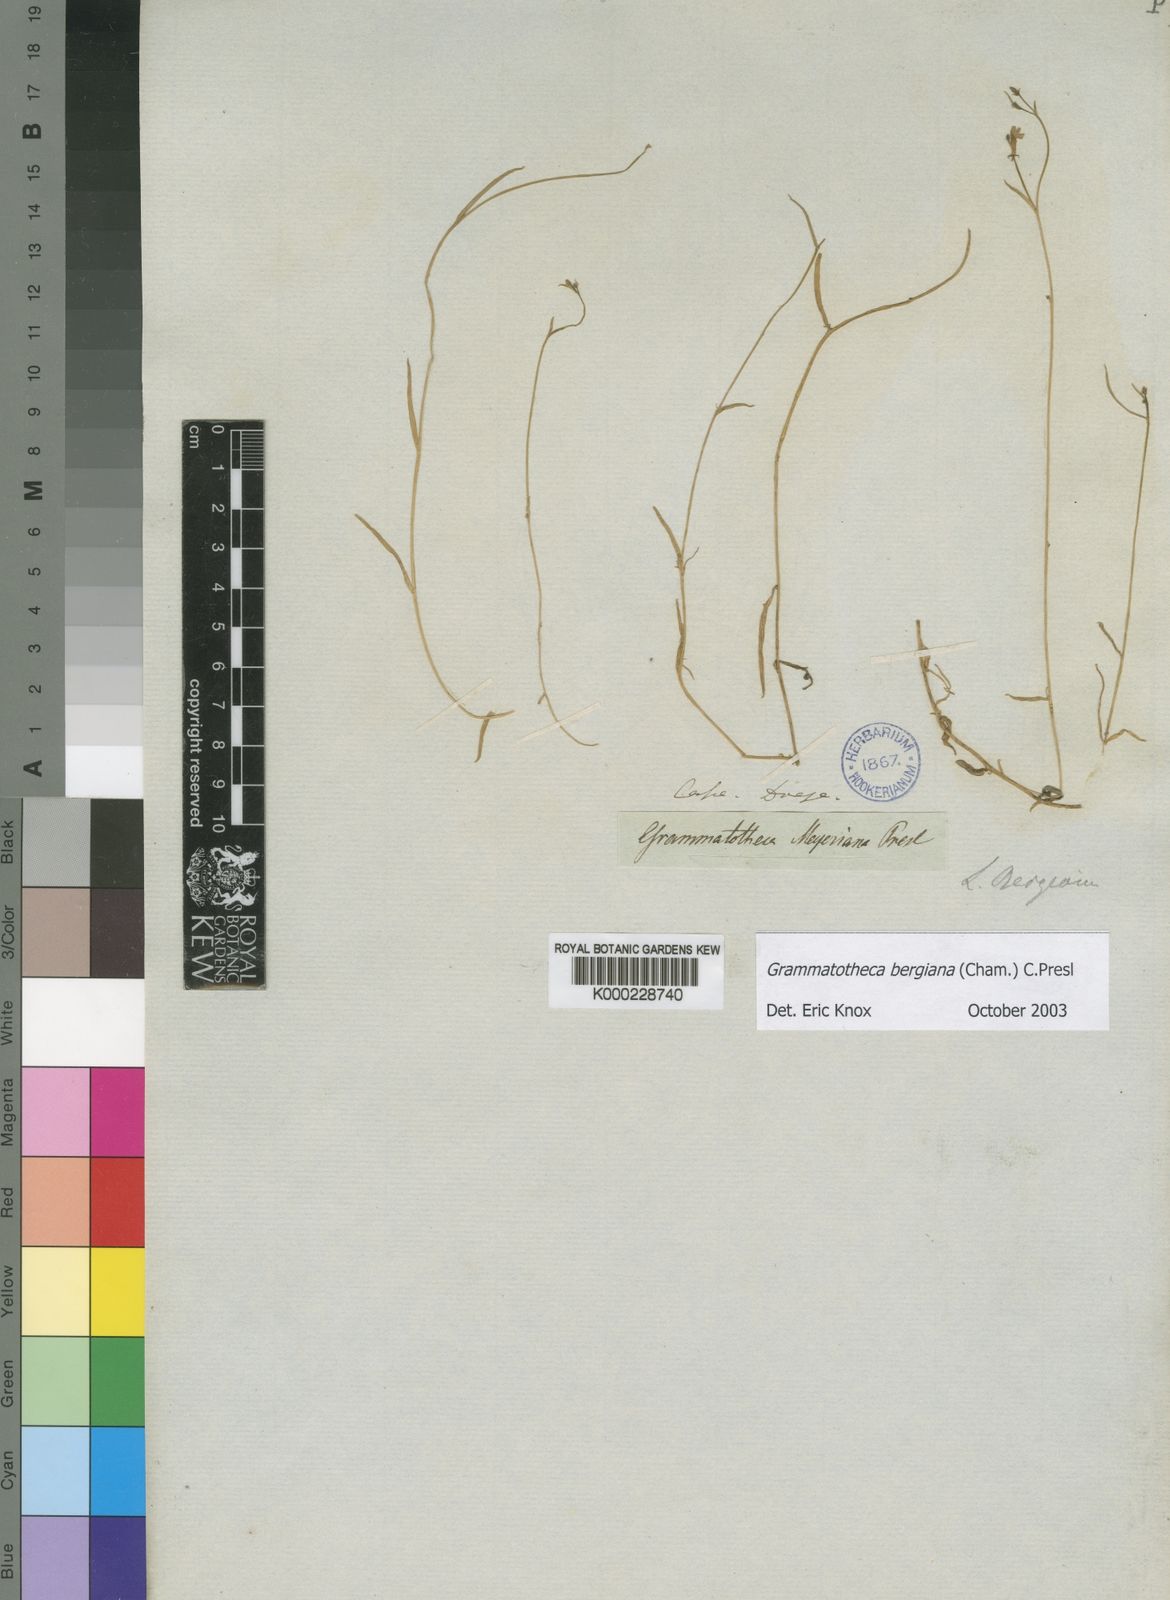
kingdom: Plantae
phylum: Tracheophyta
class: Magnoliopsida
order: Asterales
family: Campanulaceae
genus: Grammatotheca
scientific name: Grammatotheca bergiana
